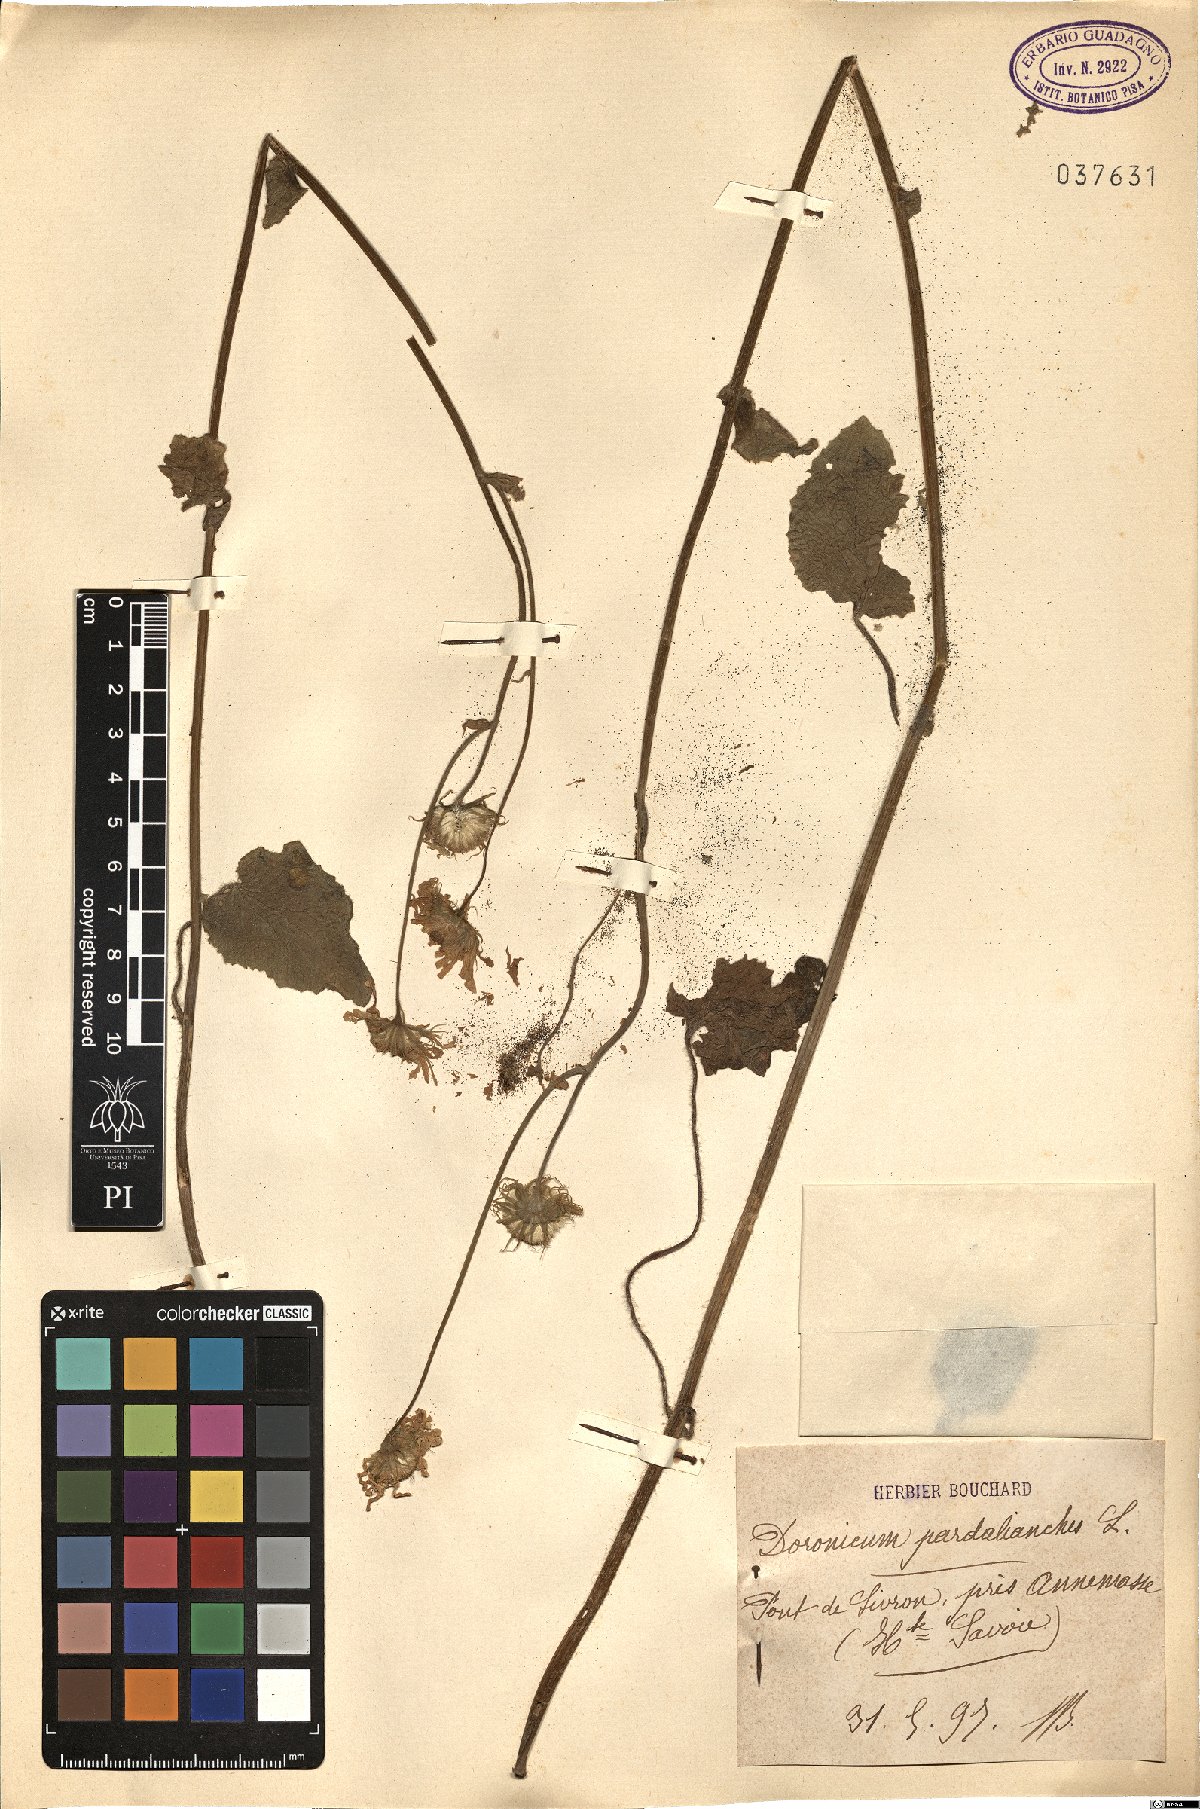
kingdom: Plantae
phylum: Tracheophyta
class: Magnoliopsida
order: Asterales
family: Asteraceae
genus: Doronicum
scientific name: Doronicum pardalianches
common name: Leopard's-bane
